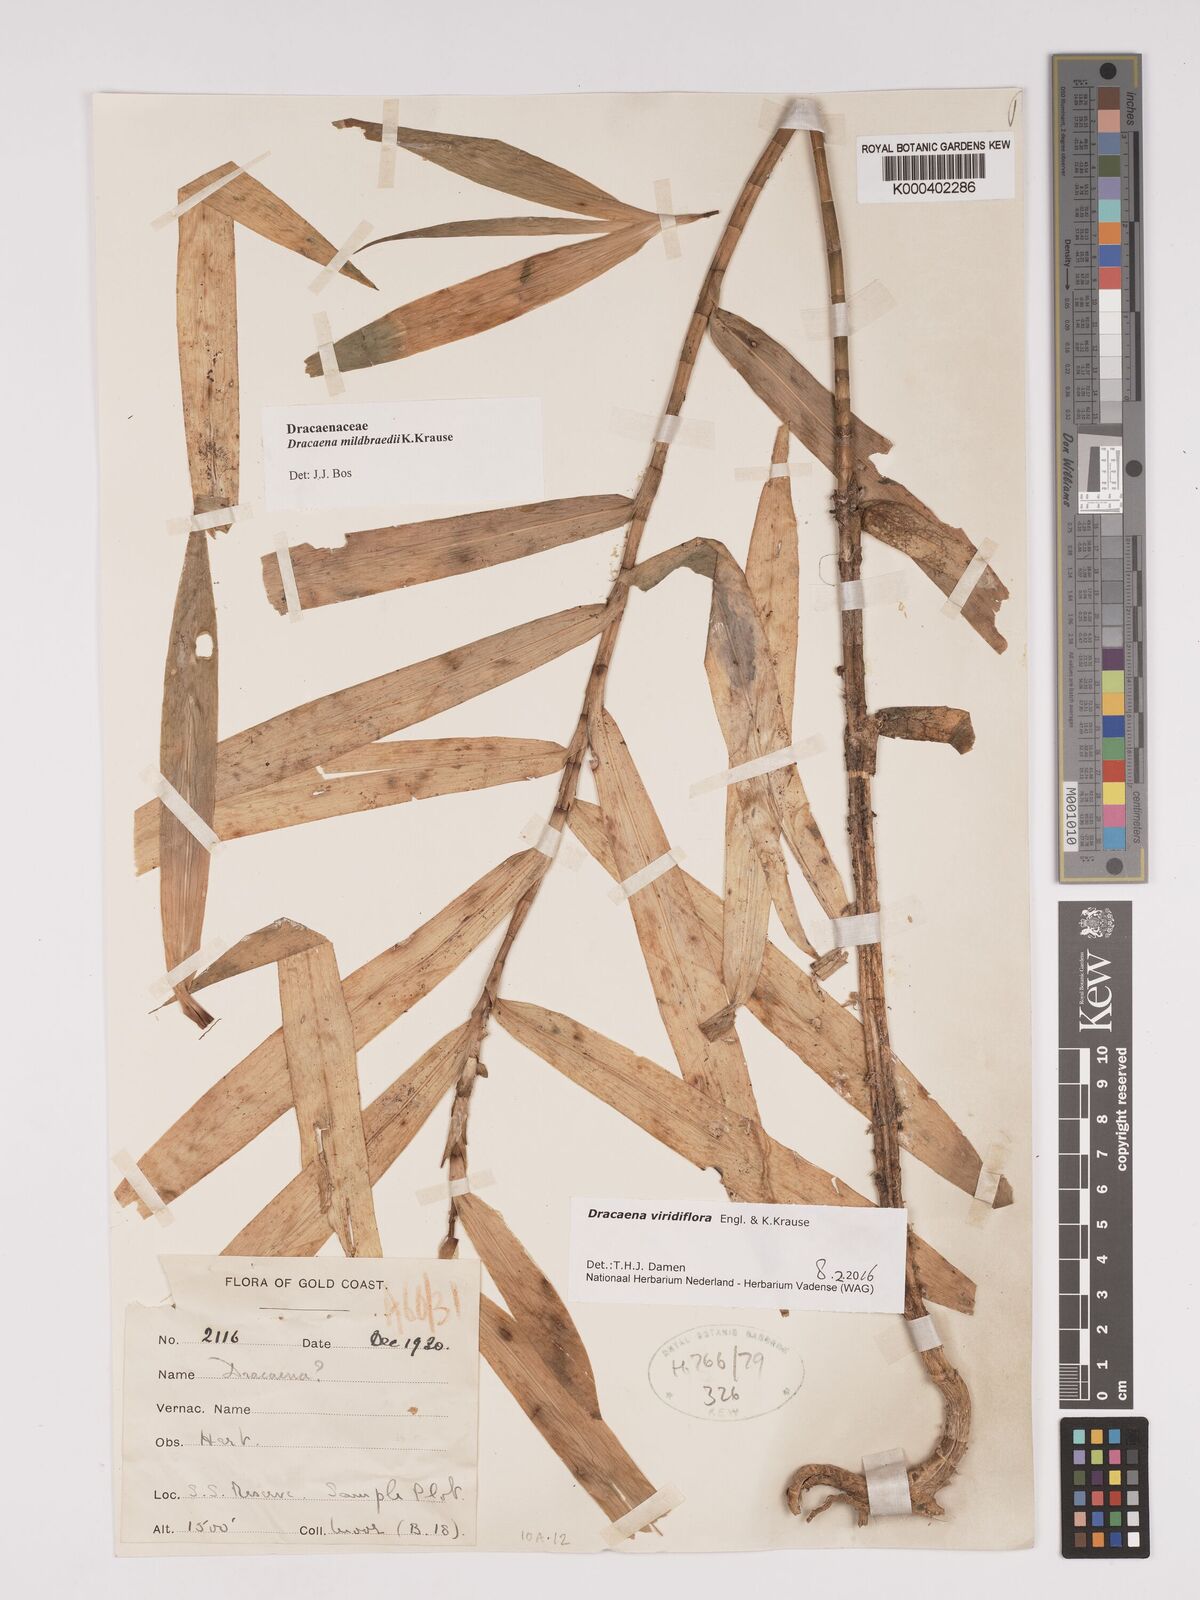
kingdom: Plantae
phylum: Tracheophyta
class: Liliopsida
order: Asparagales
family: Asparagaceae
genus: Dracaena
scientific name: Dracaena viridiflora
